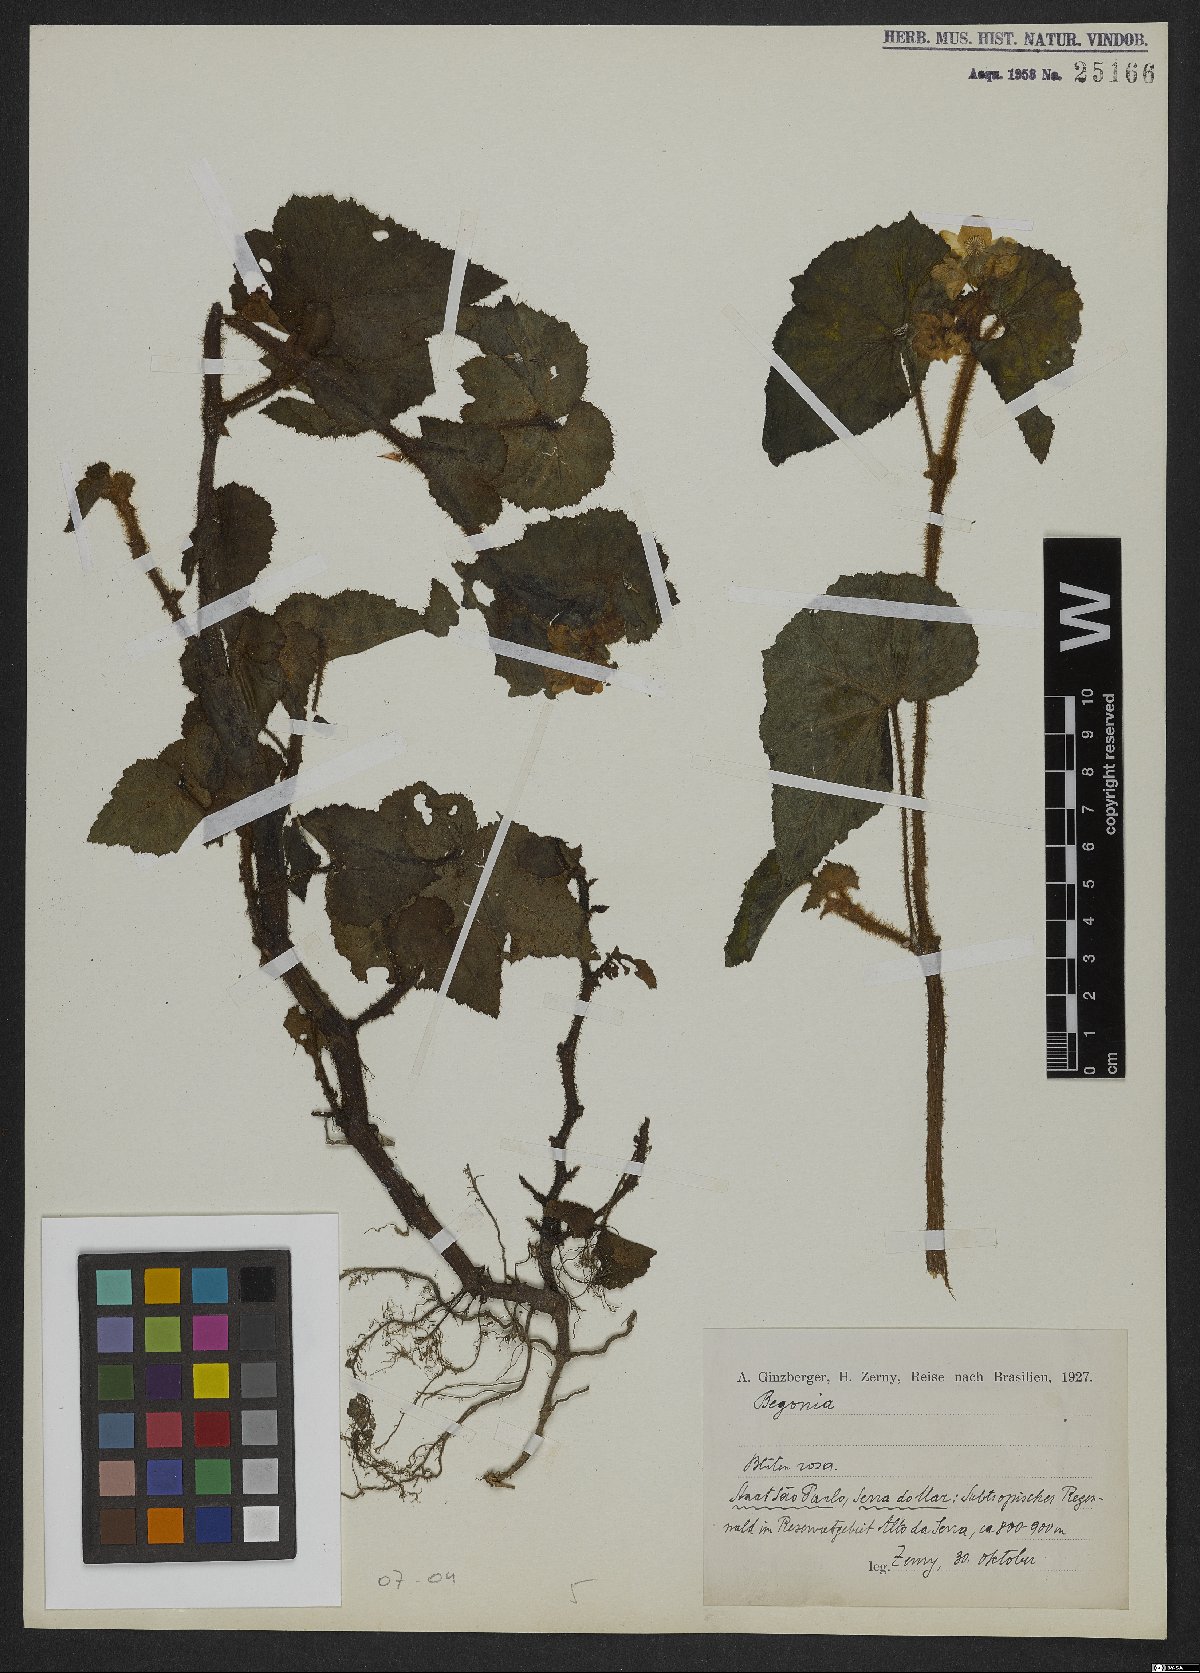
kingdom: Plantae
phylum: Tracheophyta
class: Magnoliopsida
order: Cucurbitales
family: Begoniaceae
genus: Begonia
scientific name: Begonia
